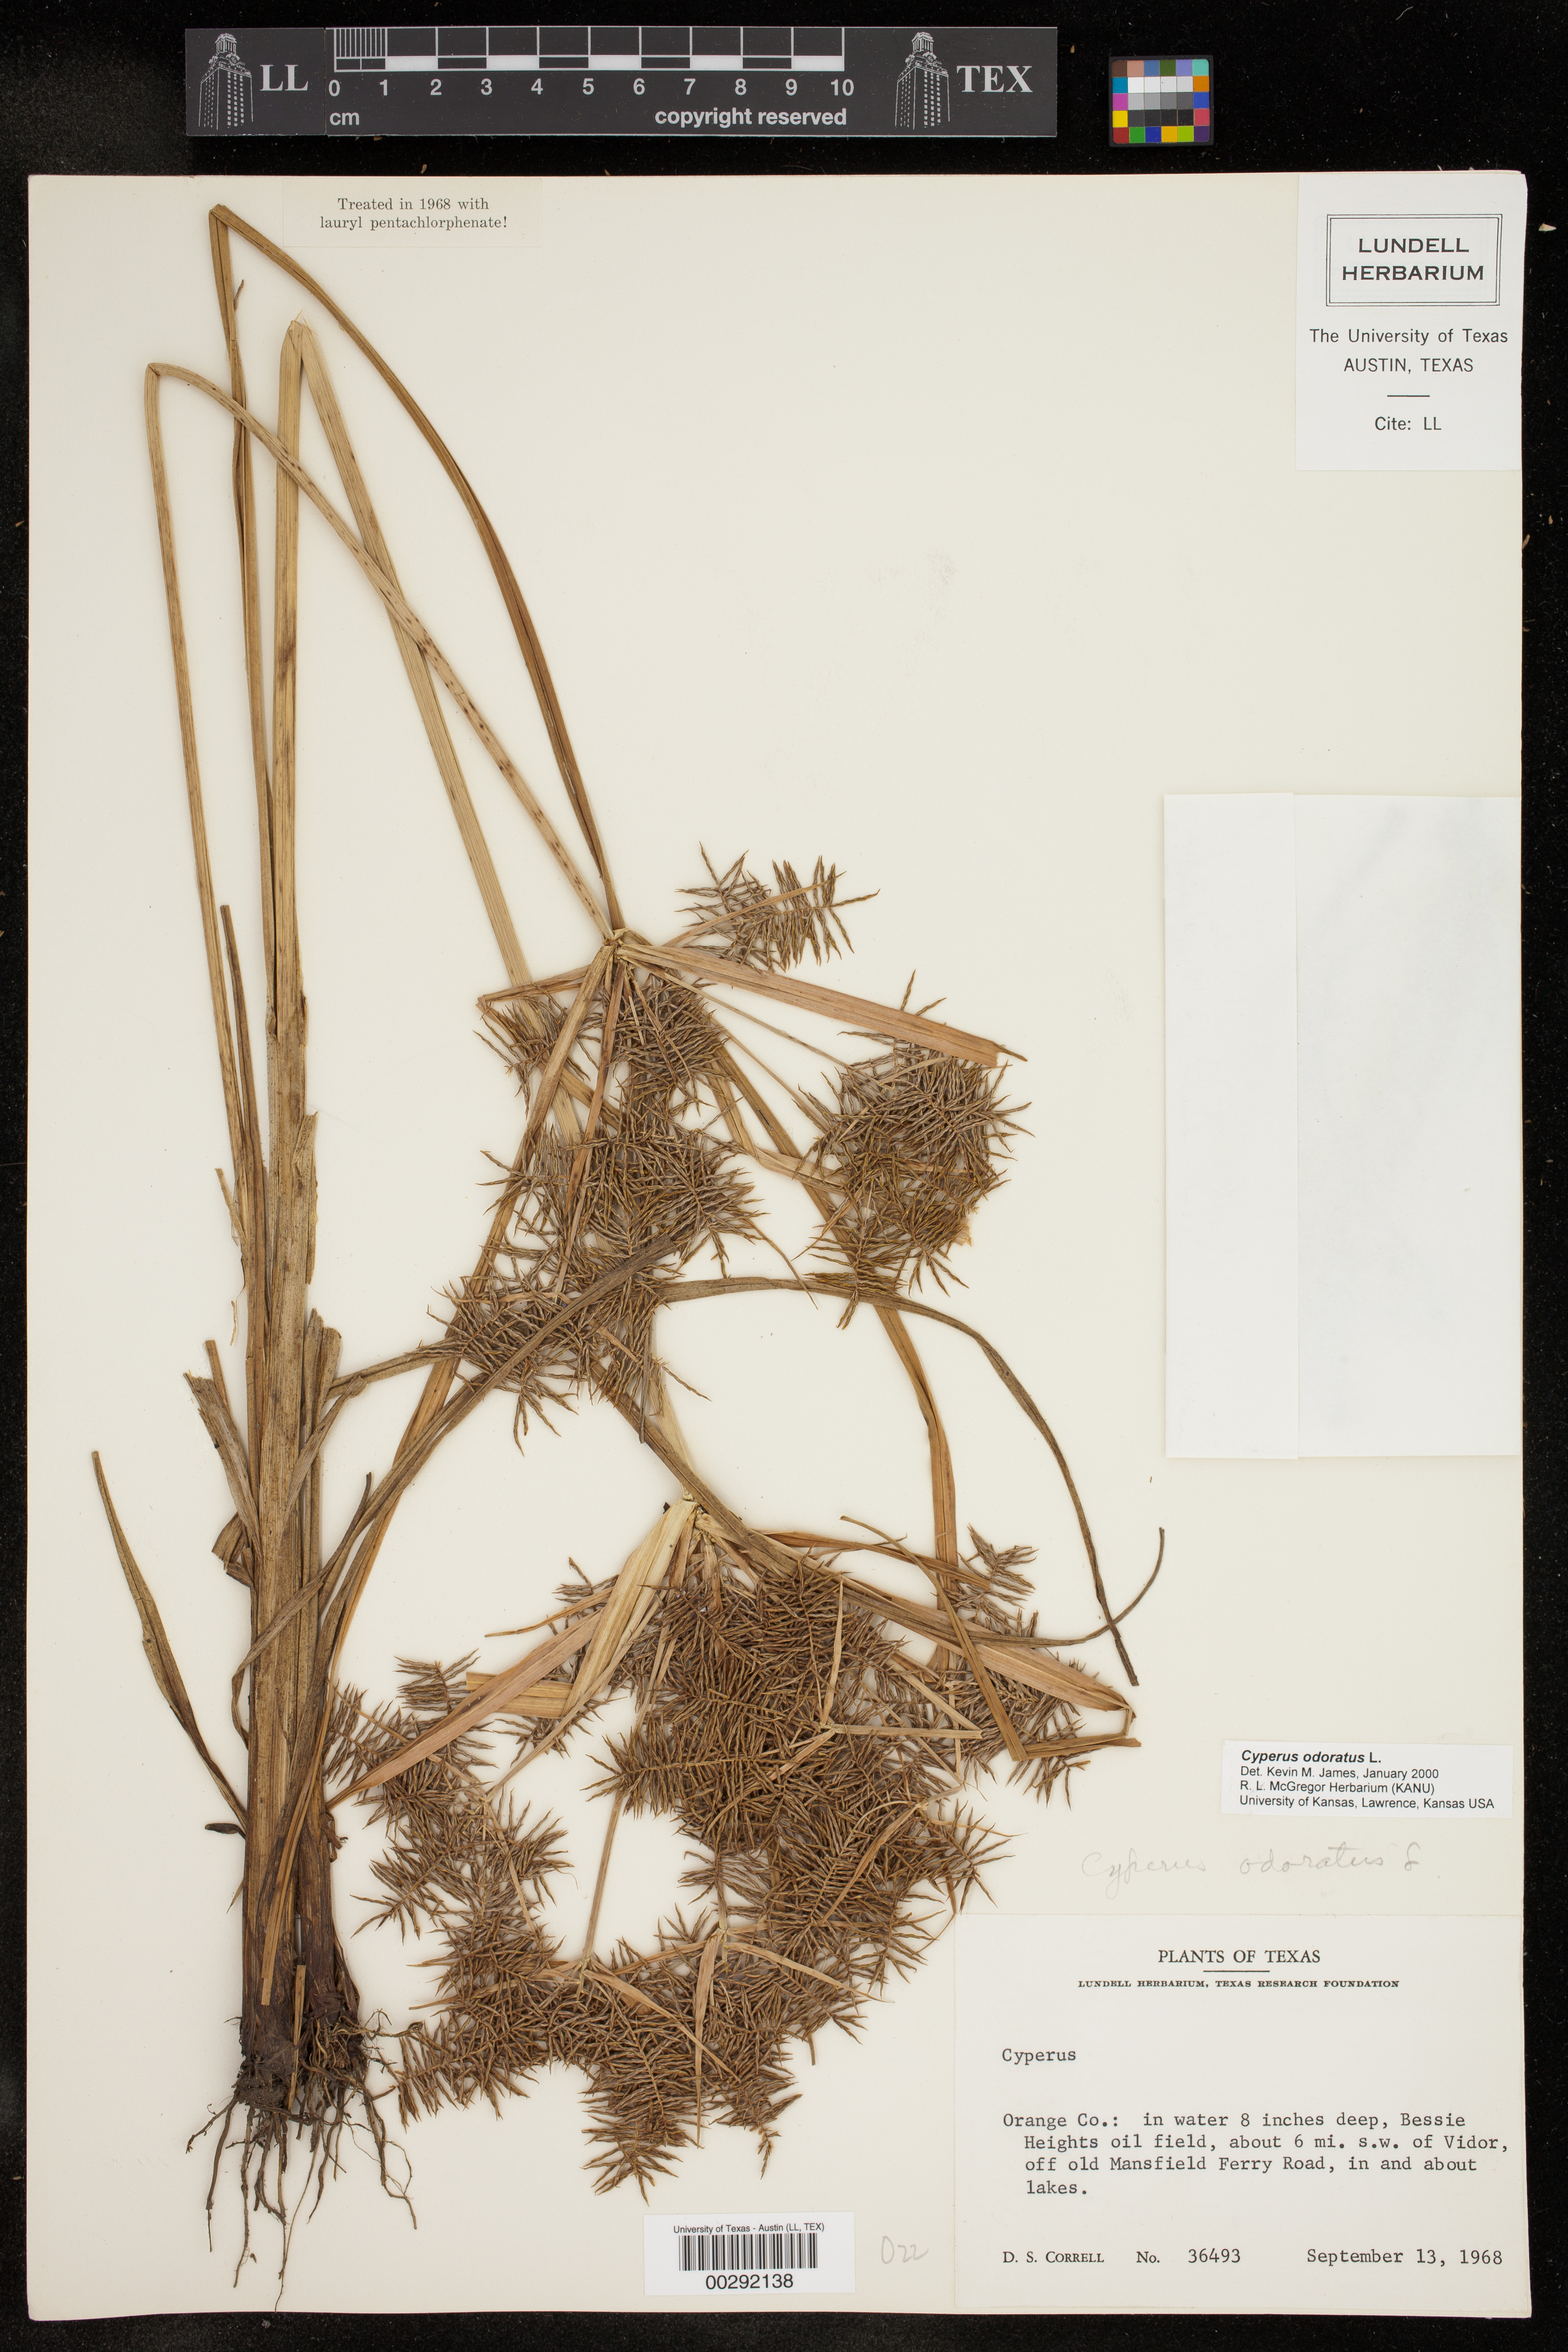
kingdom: Plantae
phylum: Tracheophyta
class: Liliopsida
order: Poales
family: Cyperaceae
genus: Cyperus
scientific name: Cyperus odoratus
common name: Fragrant flatsedge
